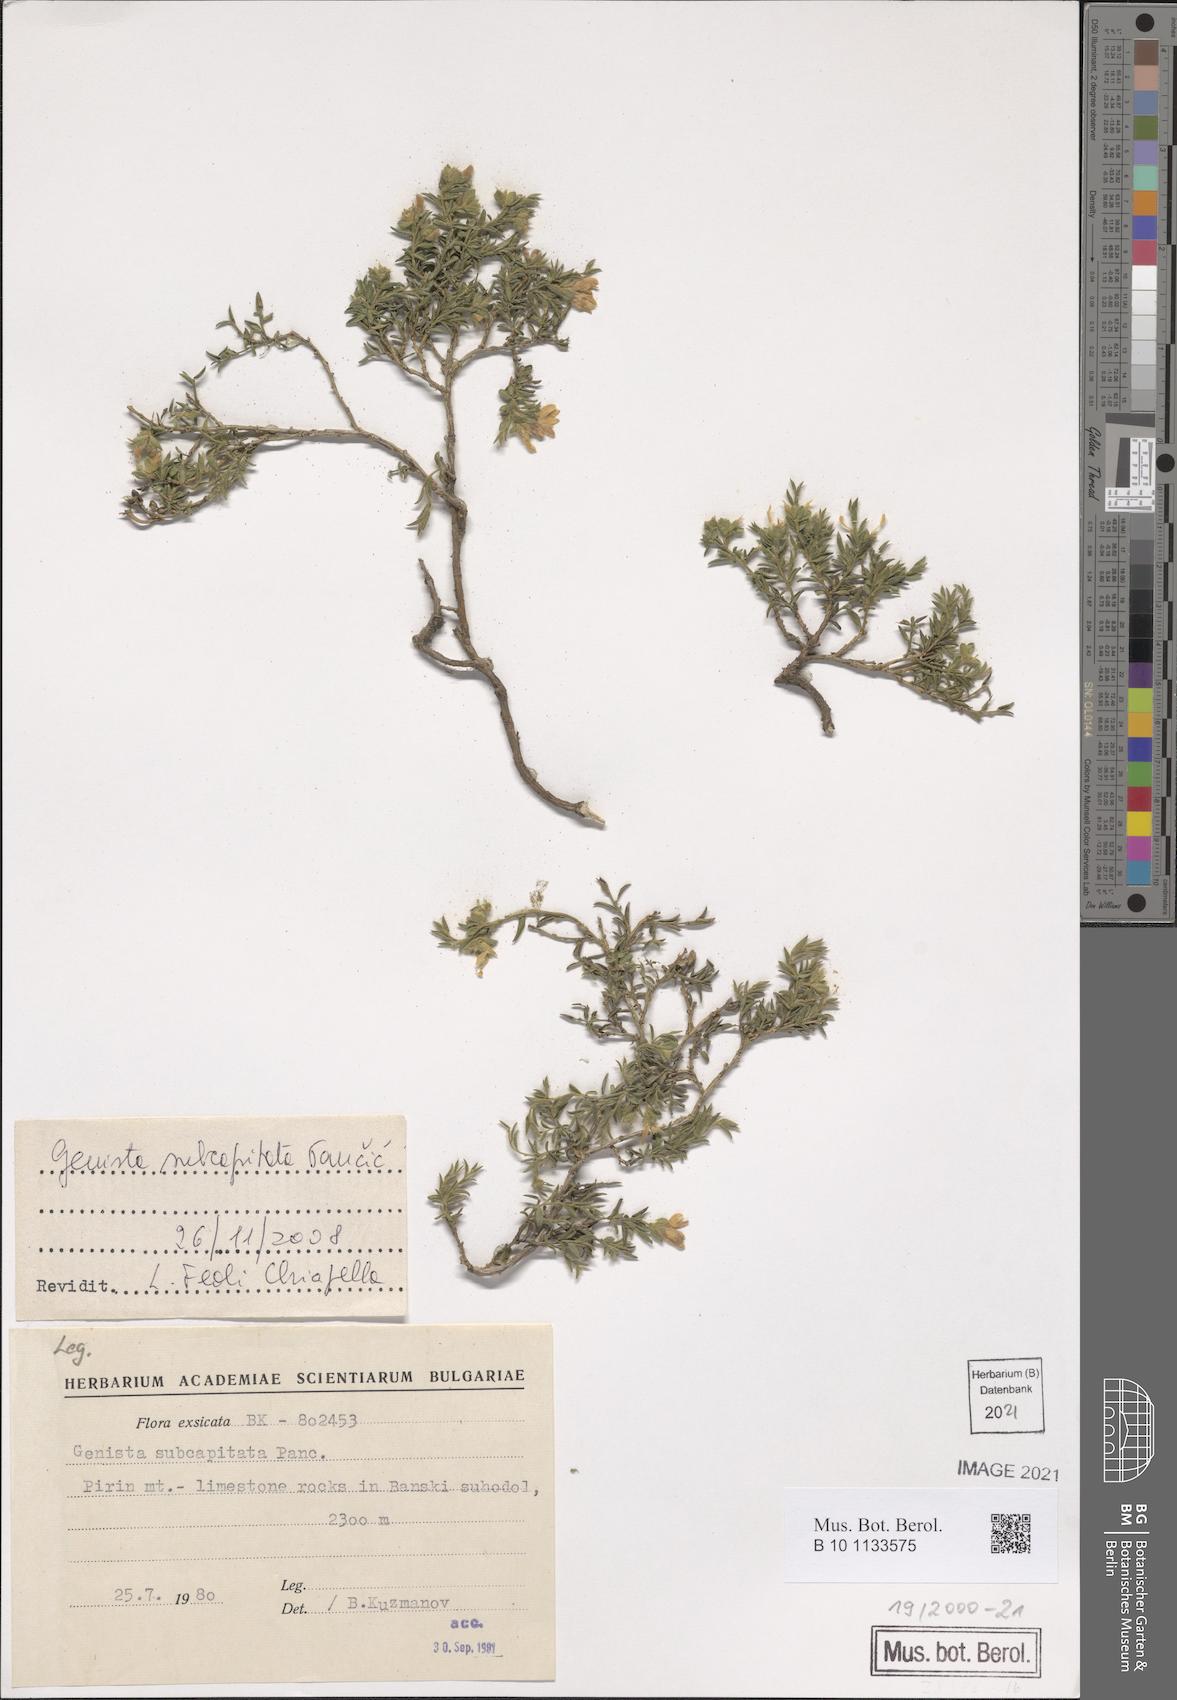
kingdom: Plantae
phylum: Tracheophyta
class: Magnoliopsida
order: Fabales
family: Fabaceae
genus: Genista
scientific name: Genista subcapitata
